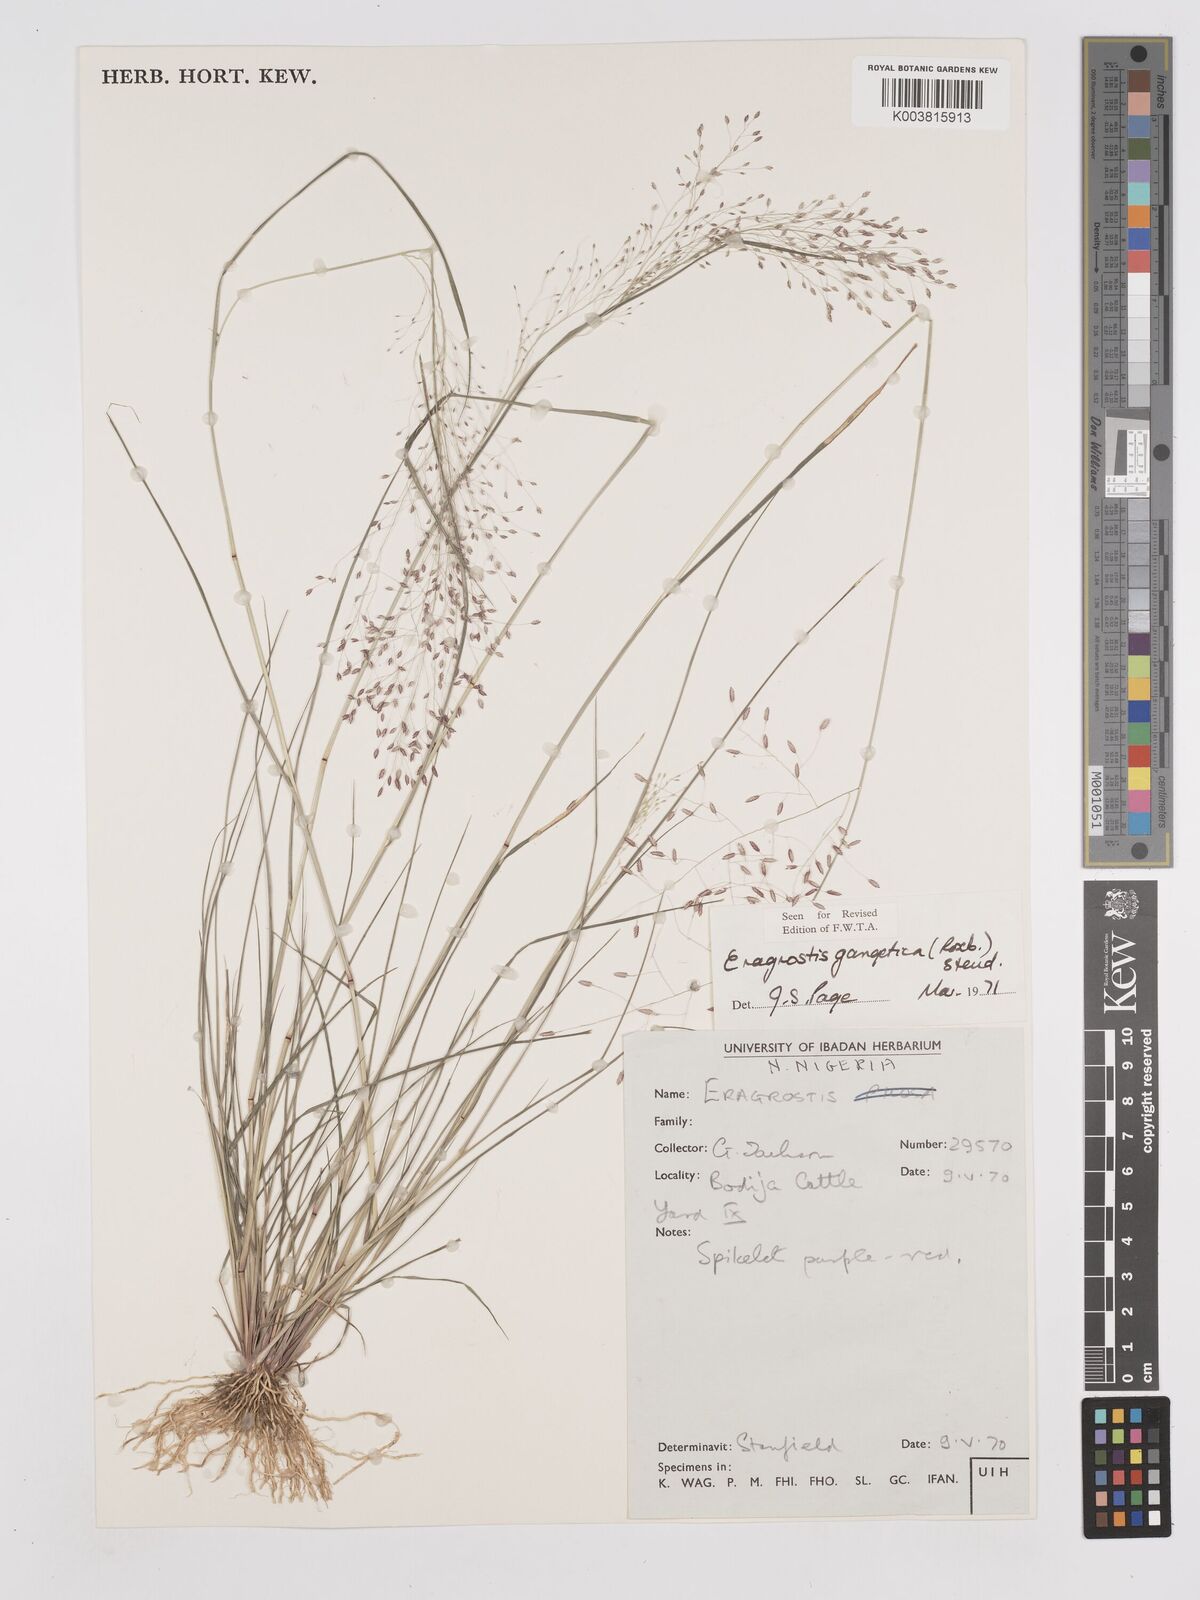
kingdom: Plantae
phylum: Tracheophyta
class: Liliopsida
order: Poales
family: Poaceae
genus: Eragrostis
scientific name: Eragrostis gangetica
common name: Slimflower lovegrass
